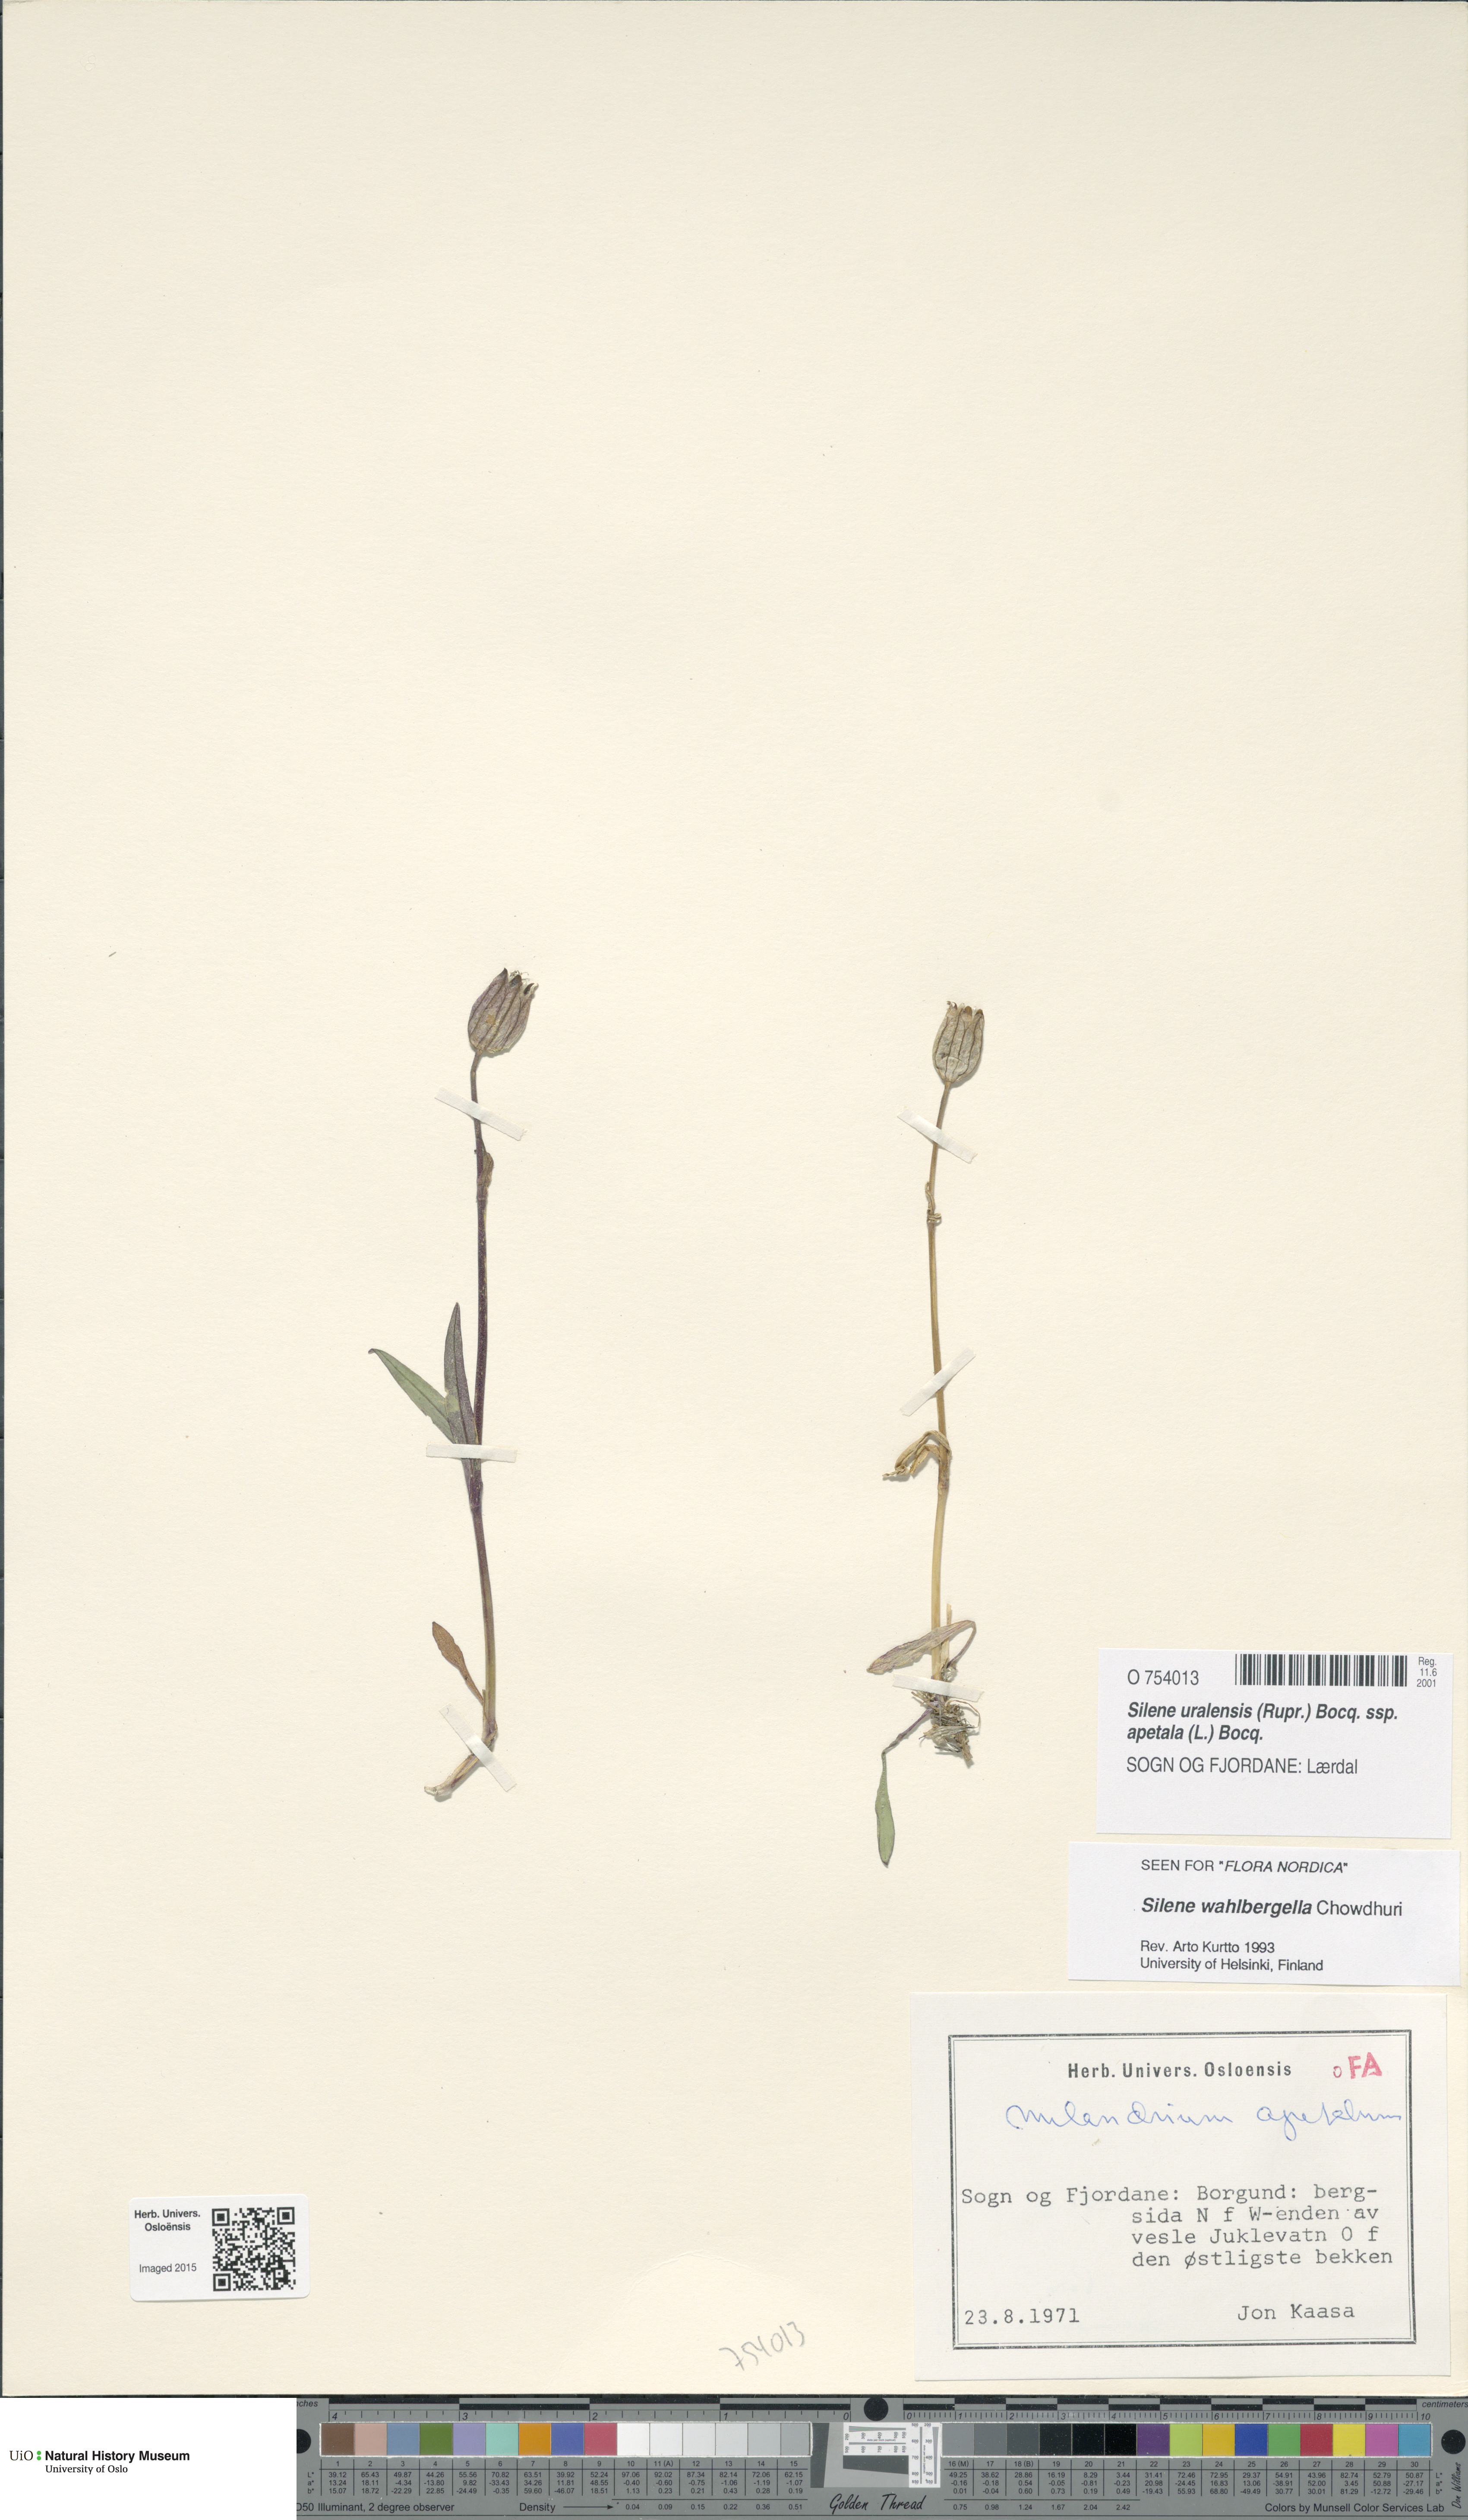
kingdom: Plantae
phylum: Tracheophyta
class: Magnoliopsida
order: Caryophyllales
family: Caryophyllaceae
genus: Silene
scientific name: Silene wahlbergella
